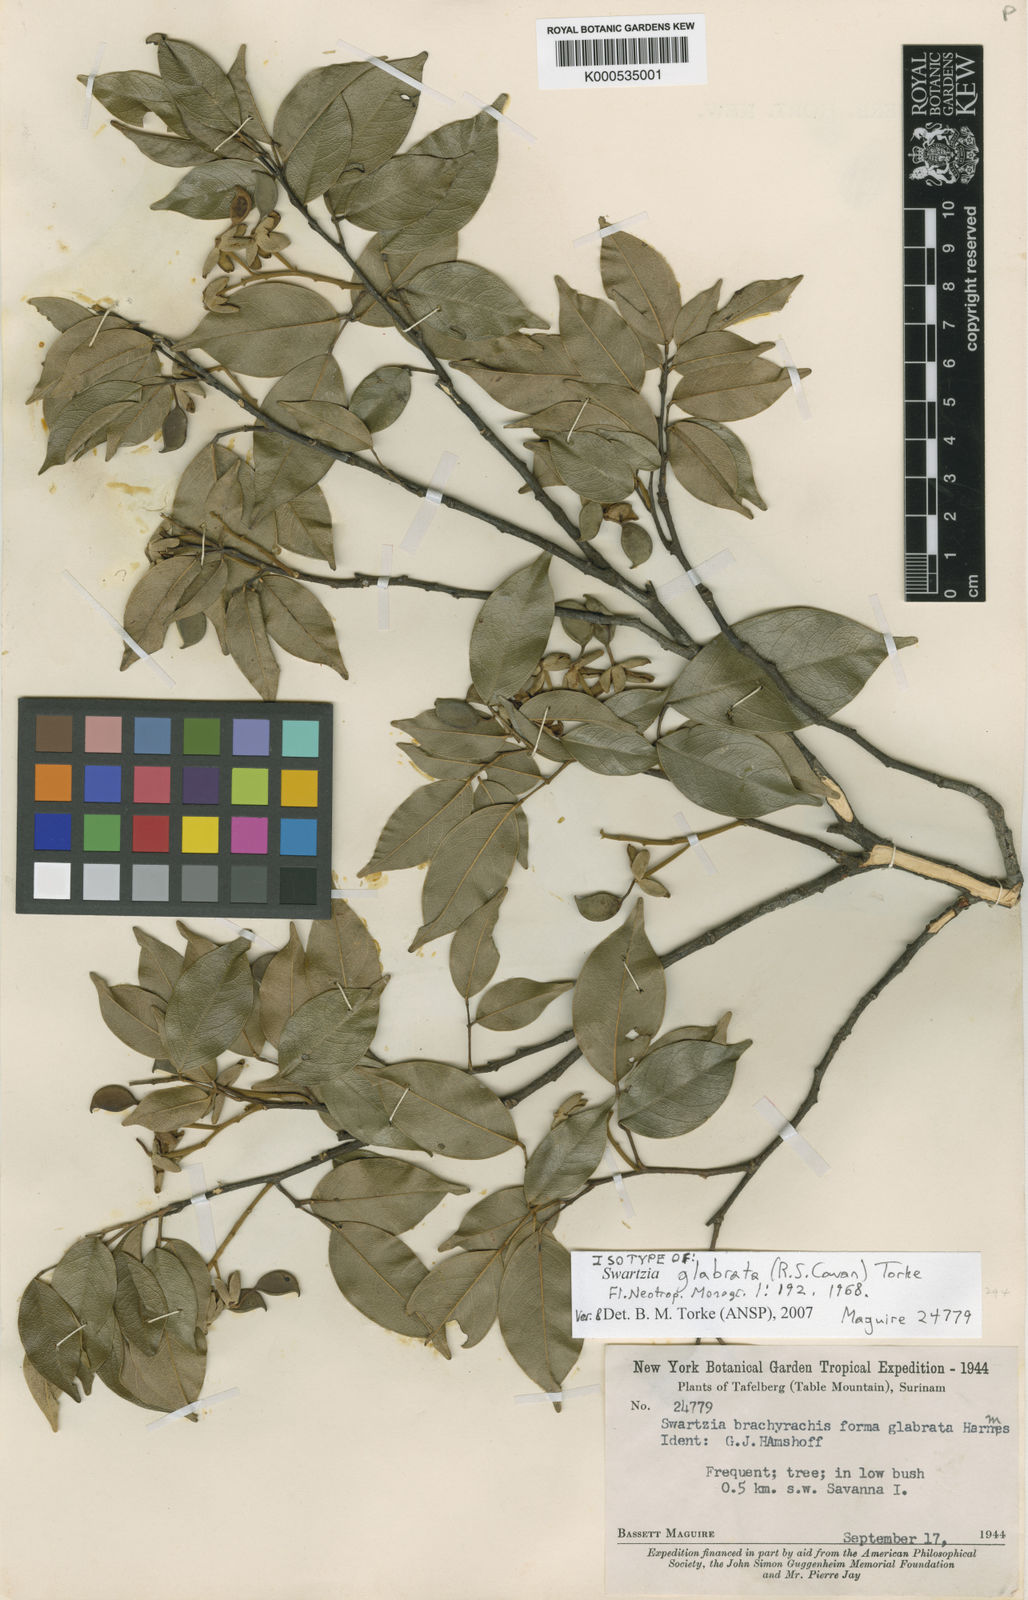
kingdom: Plantae
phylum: Tracheophyta
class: Magnoliopsida
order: Fabales
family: Fabaceae
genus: Swartzia
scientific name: Swartzia glabrata
